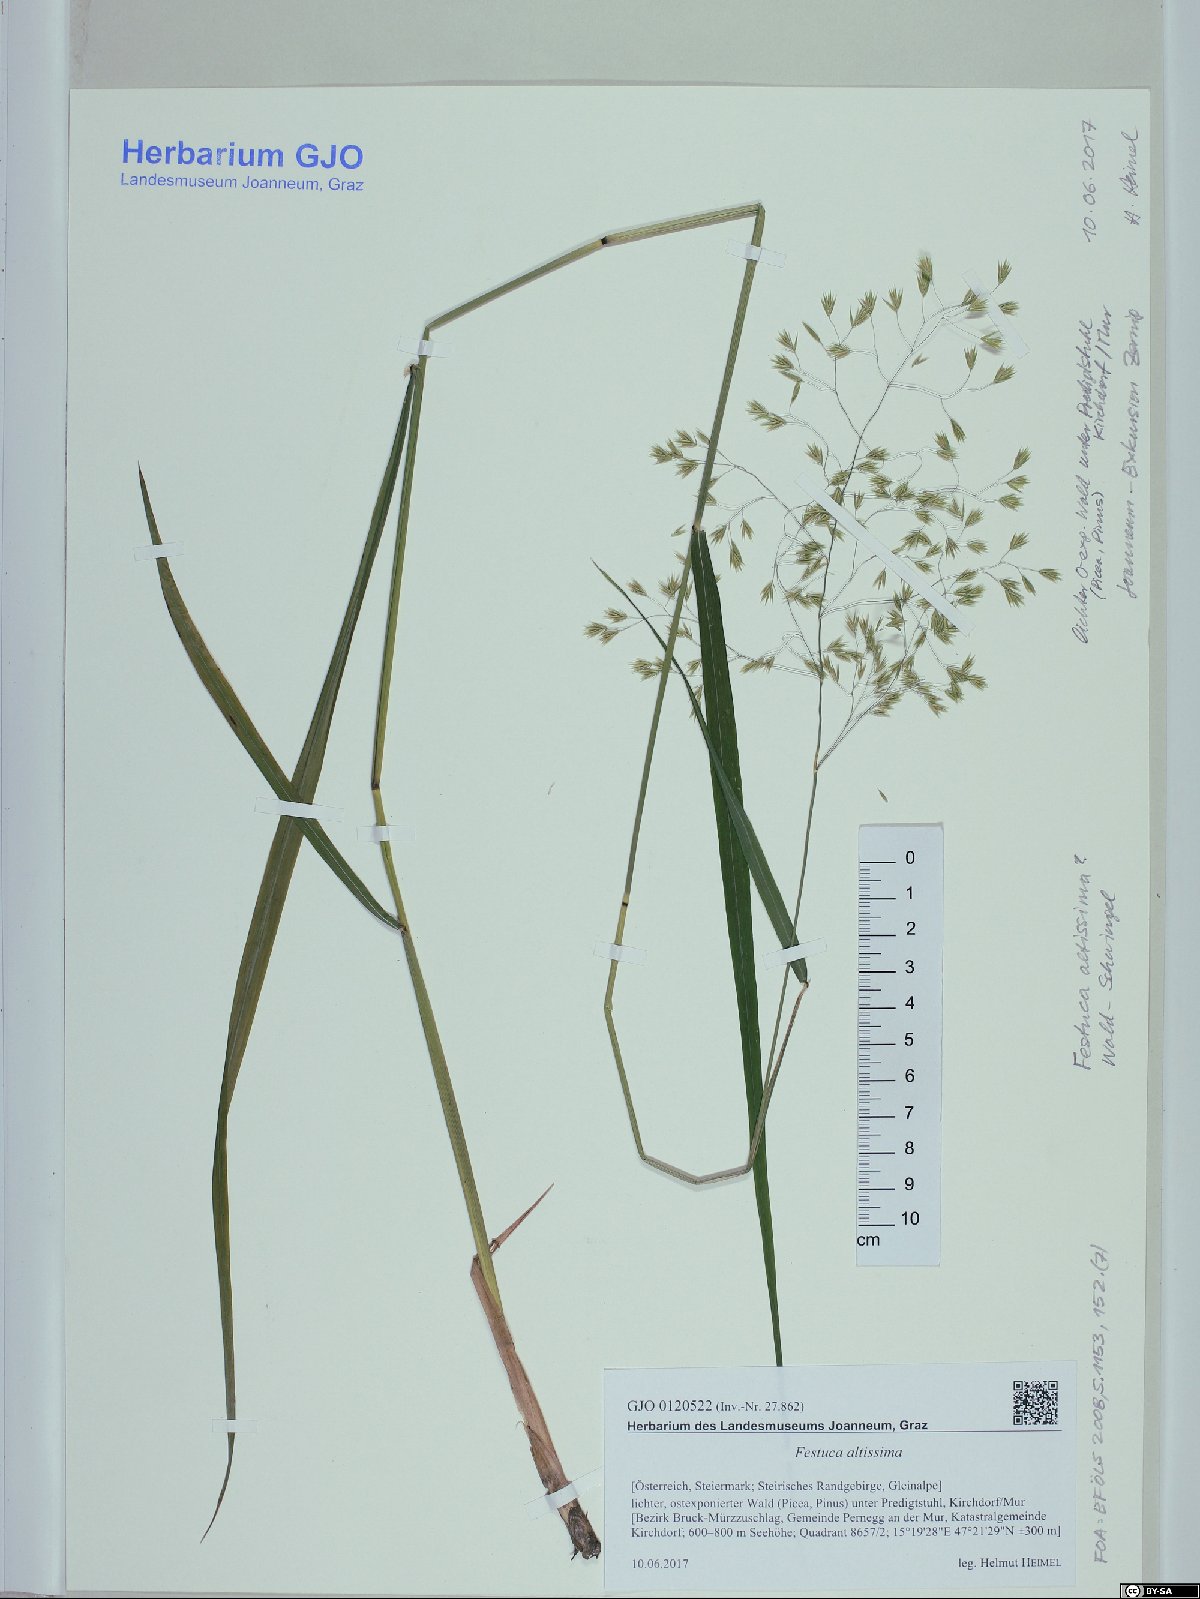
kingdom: Plantae
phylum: Tracheophyta
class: Liliopsida
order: Poales
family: Poaceae
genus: Festuca
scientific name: Festuca altissima
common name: Wood fescue
